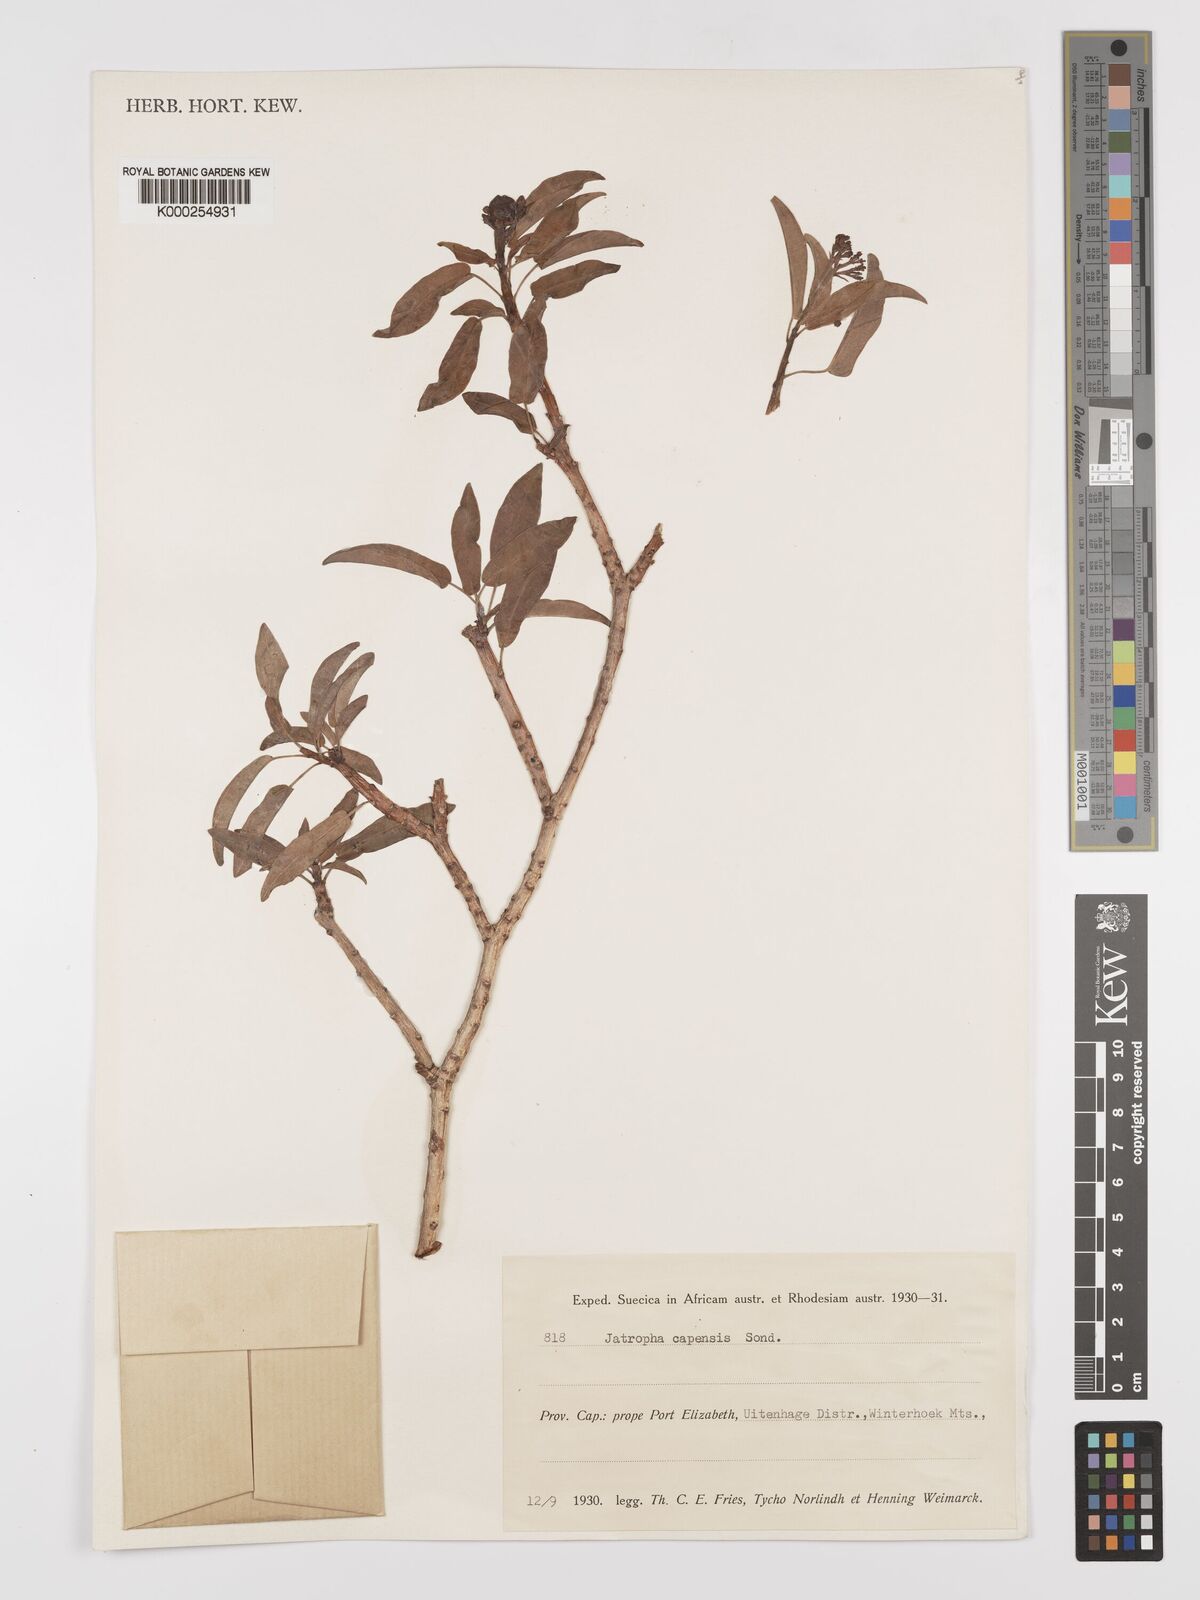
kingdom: Plantae
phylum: Tracheophyta
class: Magnoliopsida
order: Malpighiales
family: Euphorbiaceae
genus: Jatropha
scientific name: Jatropha capensis
